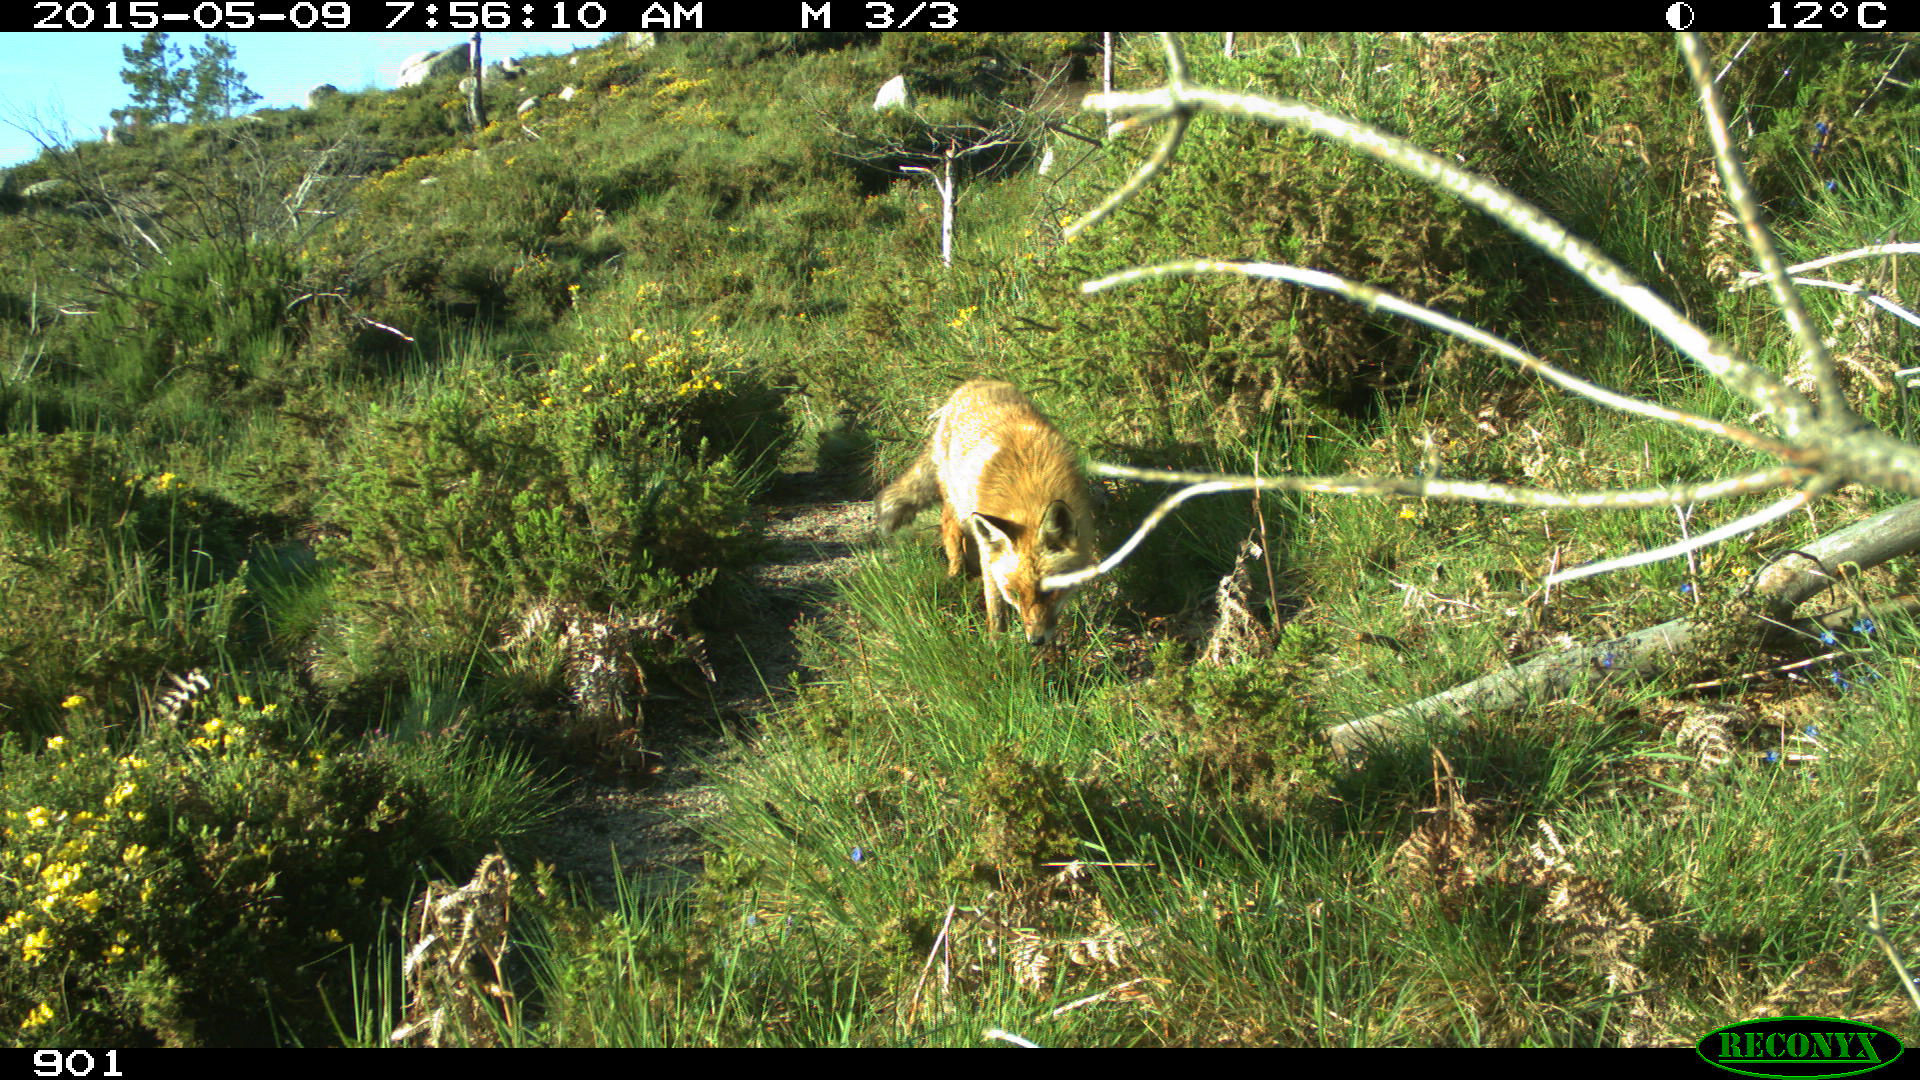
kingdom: Animalia
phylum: Chordata
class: Mammalia
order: Carnivora
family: Canidae
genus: Vulpes
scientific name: Vulpes vulpes
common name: Red fox
